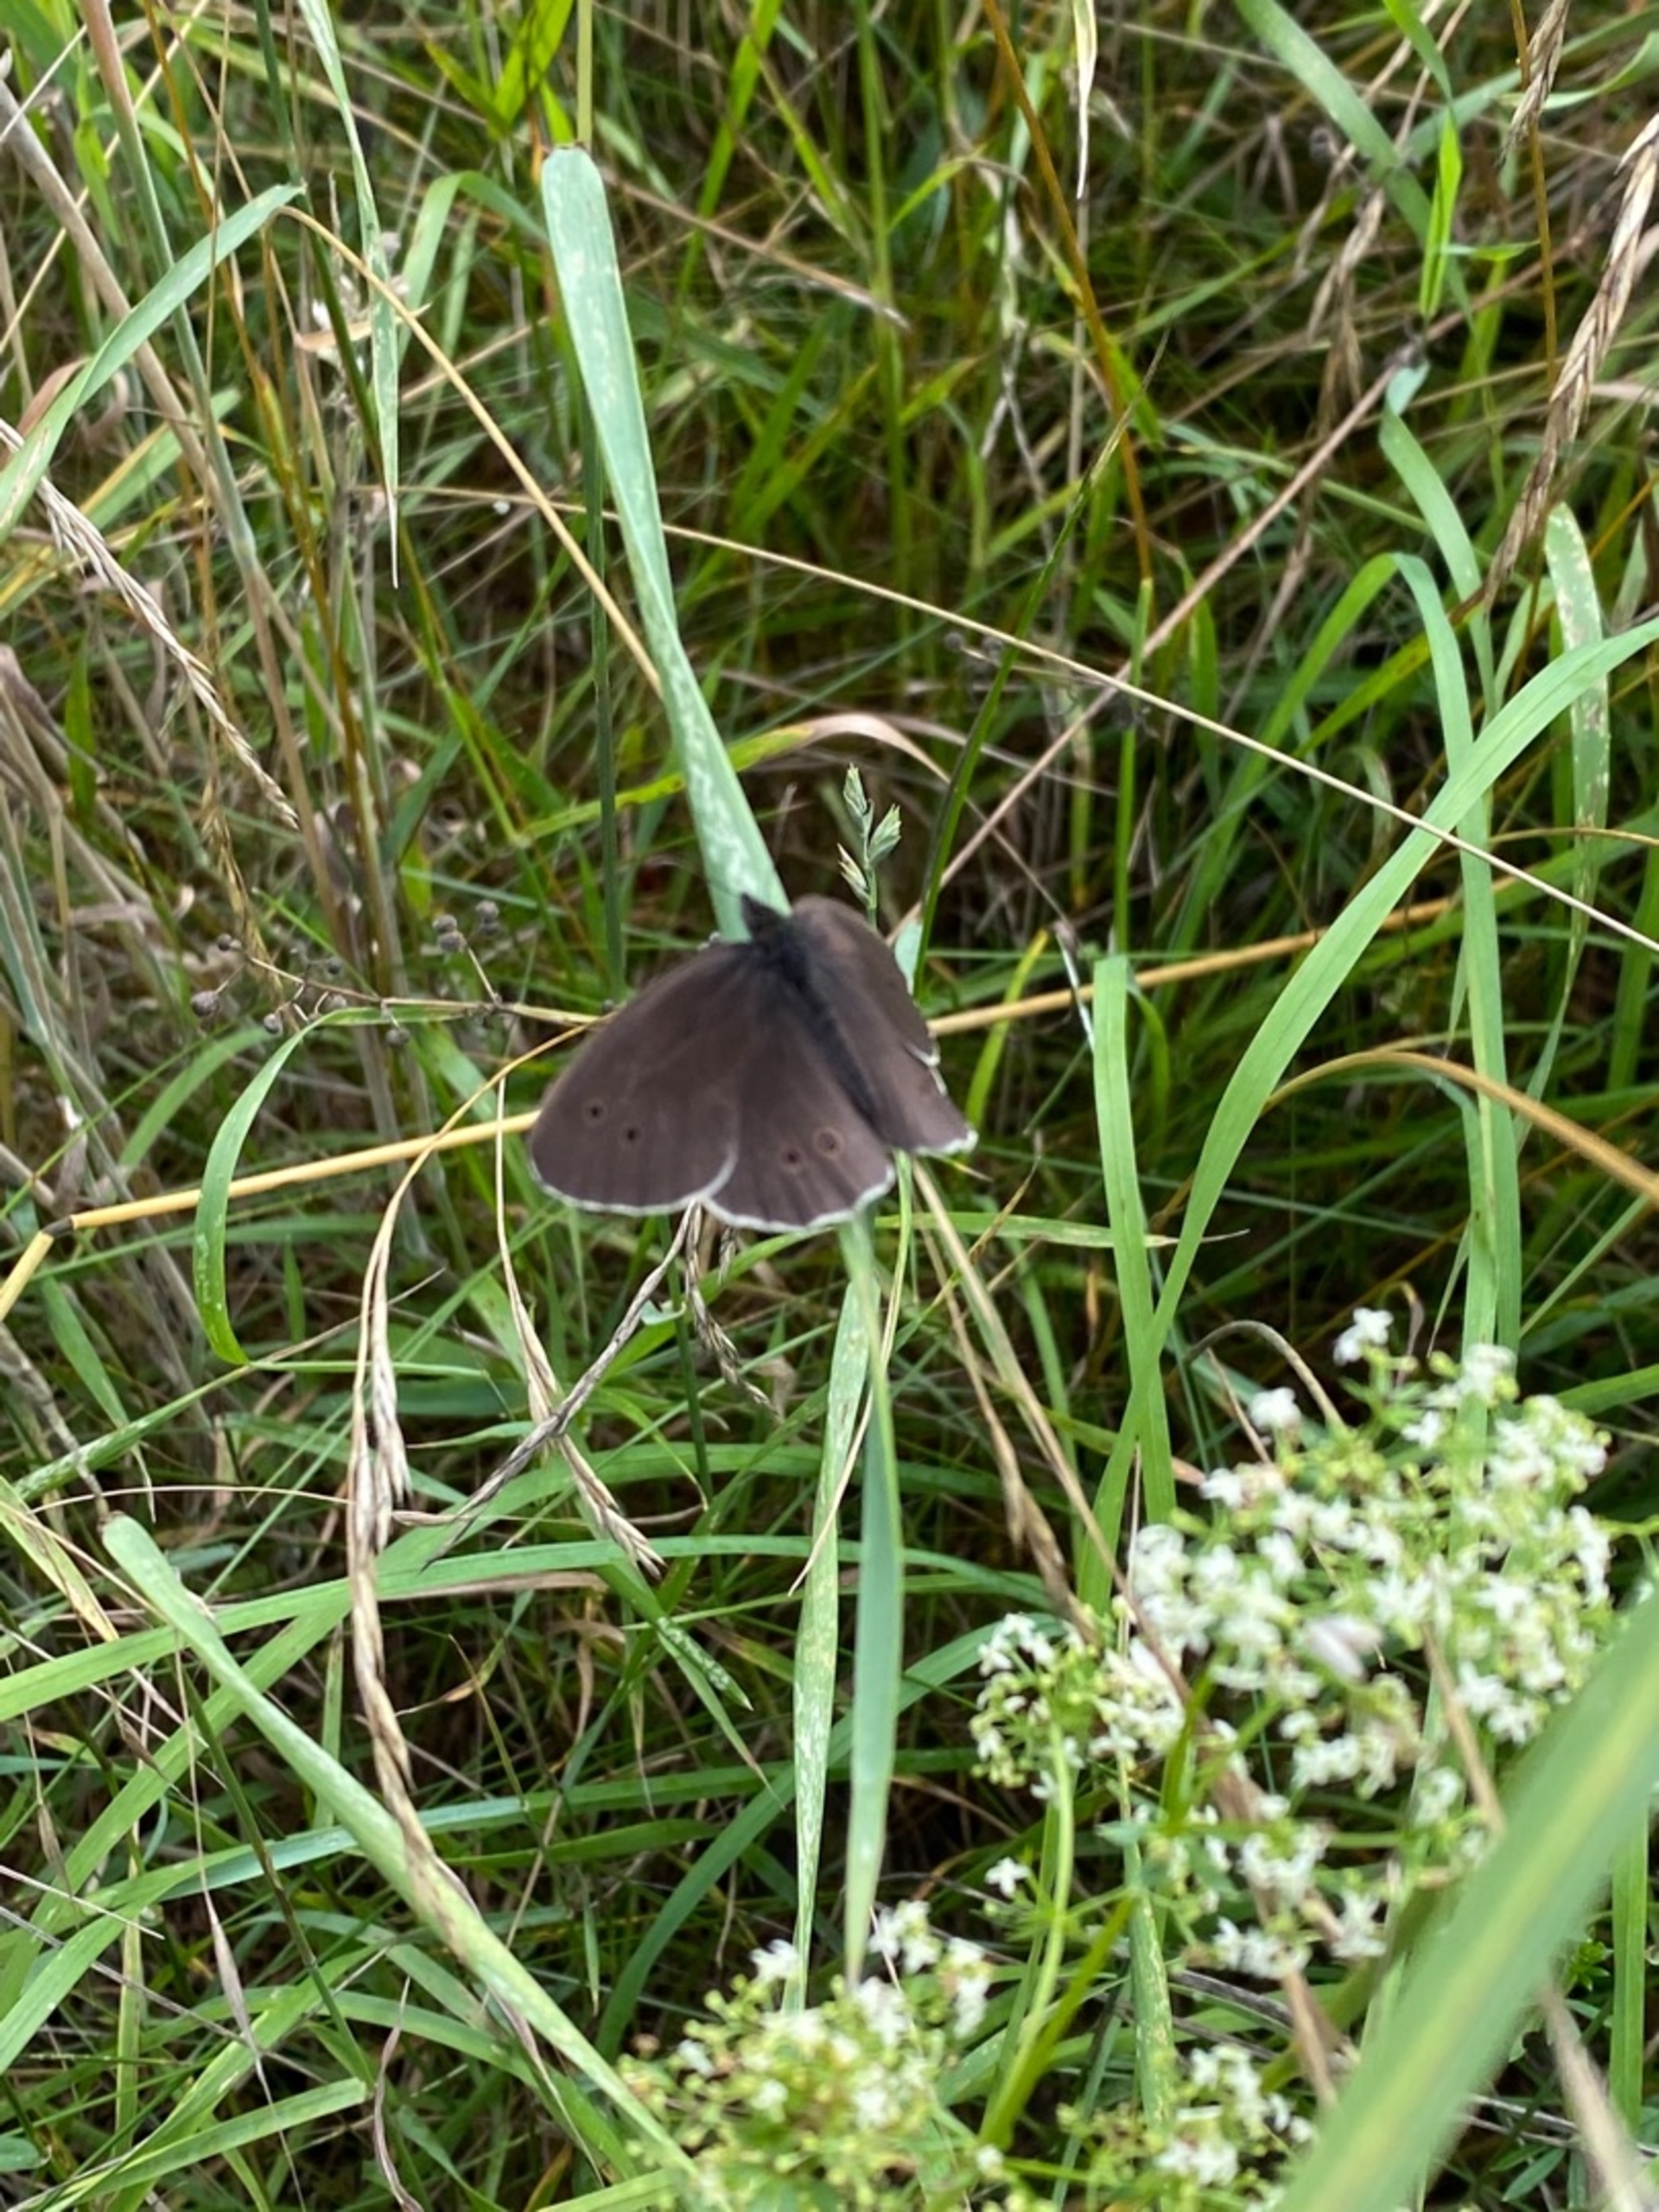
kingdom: Animalia
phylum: Arthropoda
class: Insecta
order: Lepidoptera
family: Nymphalidae
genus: Aphantopus
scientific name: Aphantopus hyperantus
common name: Engrandøje
